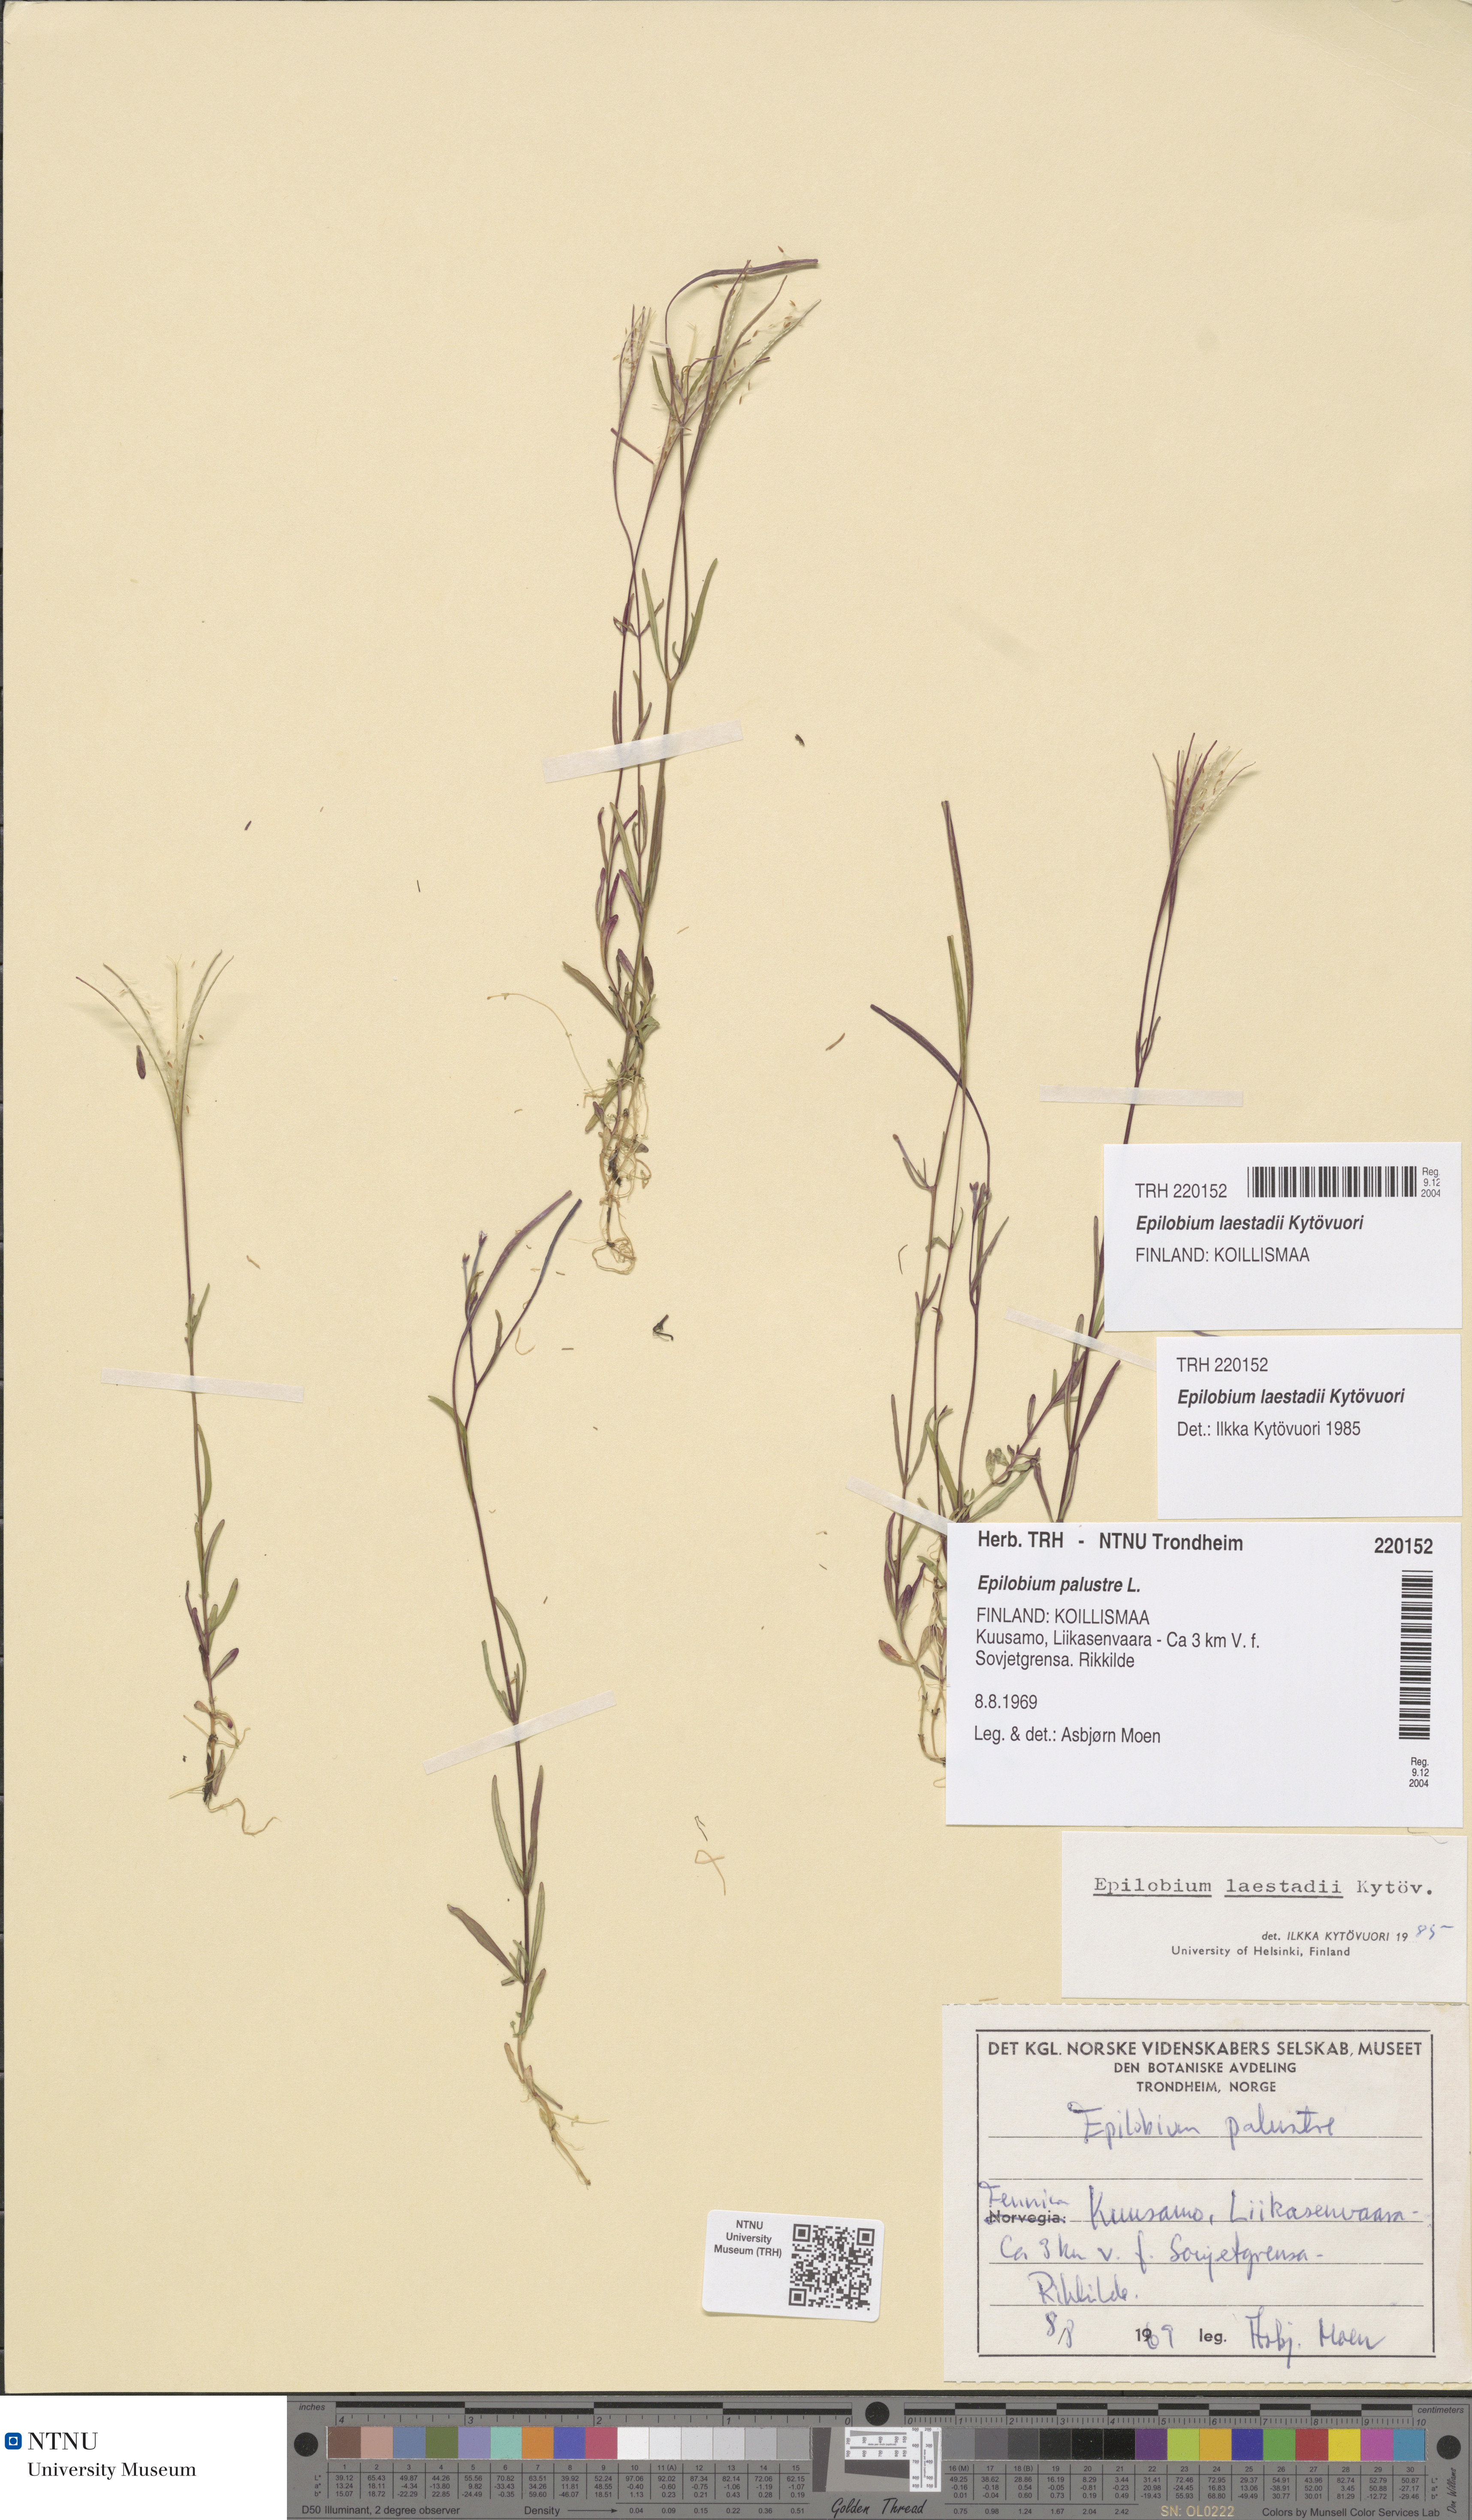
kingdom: Plantae
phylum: Tracheophyta
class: Magnoliopsida
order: Myrtales
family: Onagraceae
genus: Epilobium
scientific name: Epilobium laestadii
